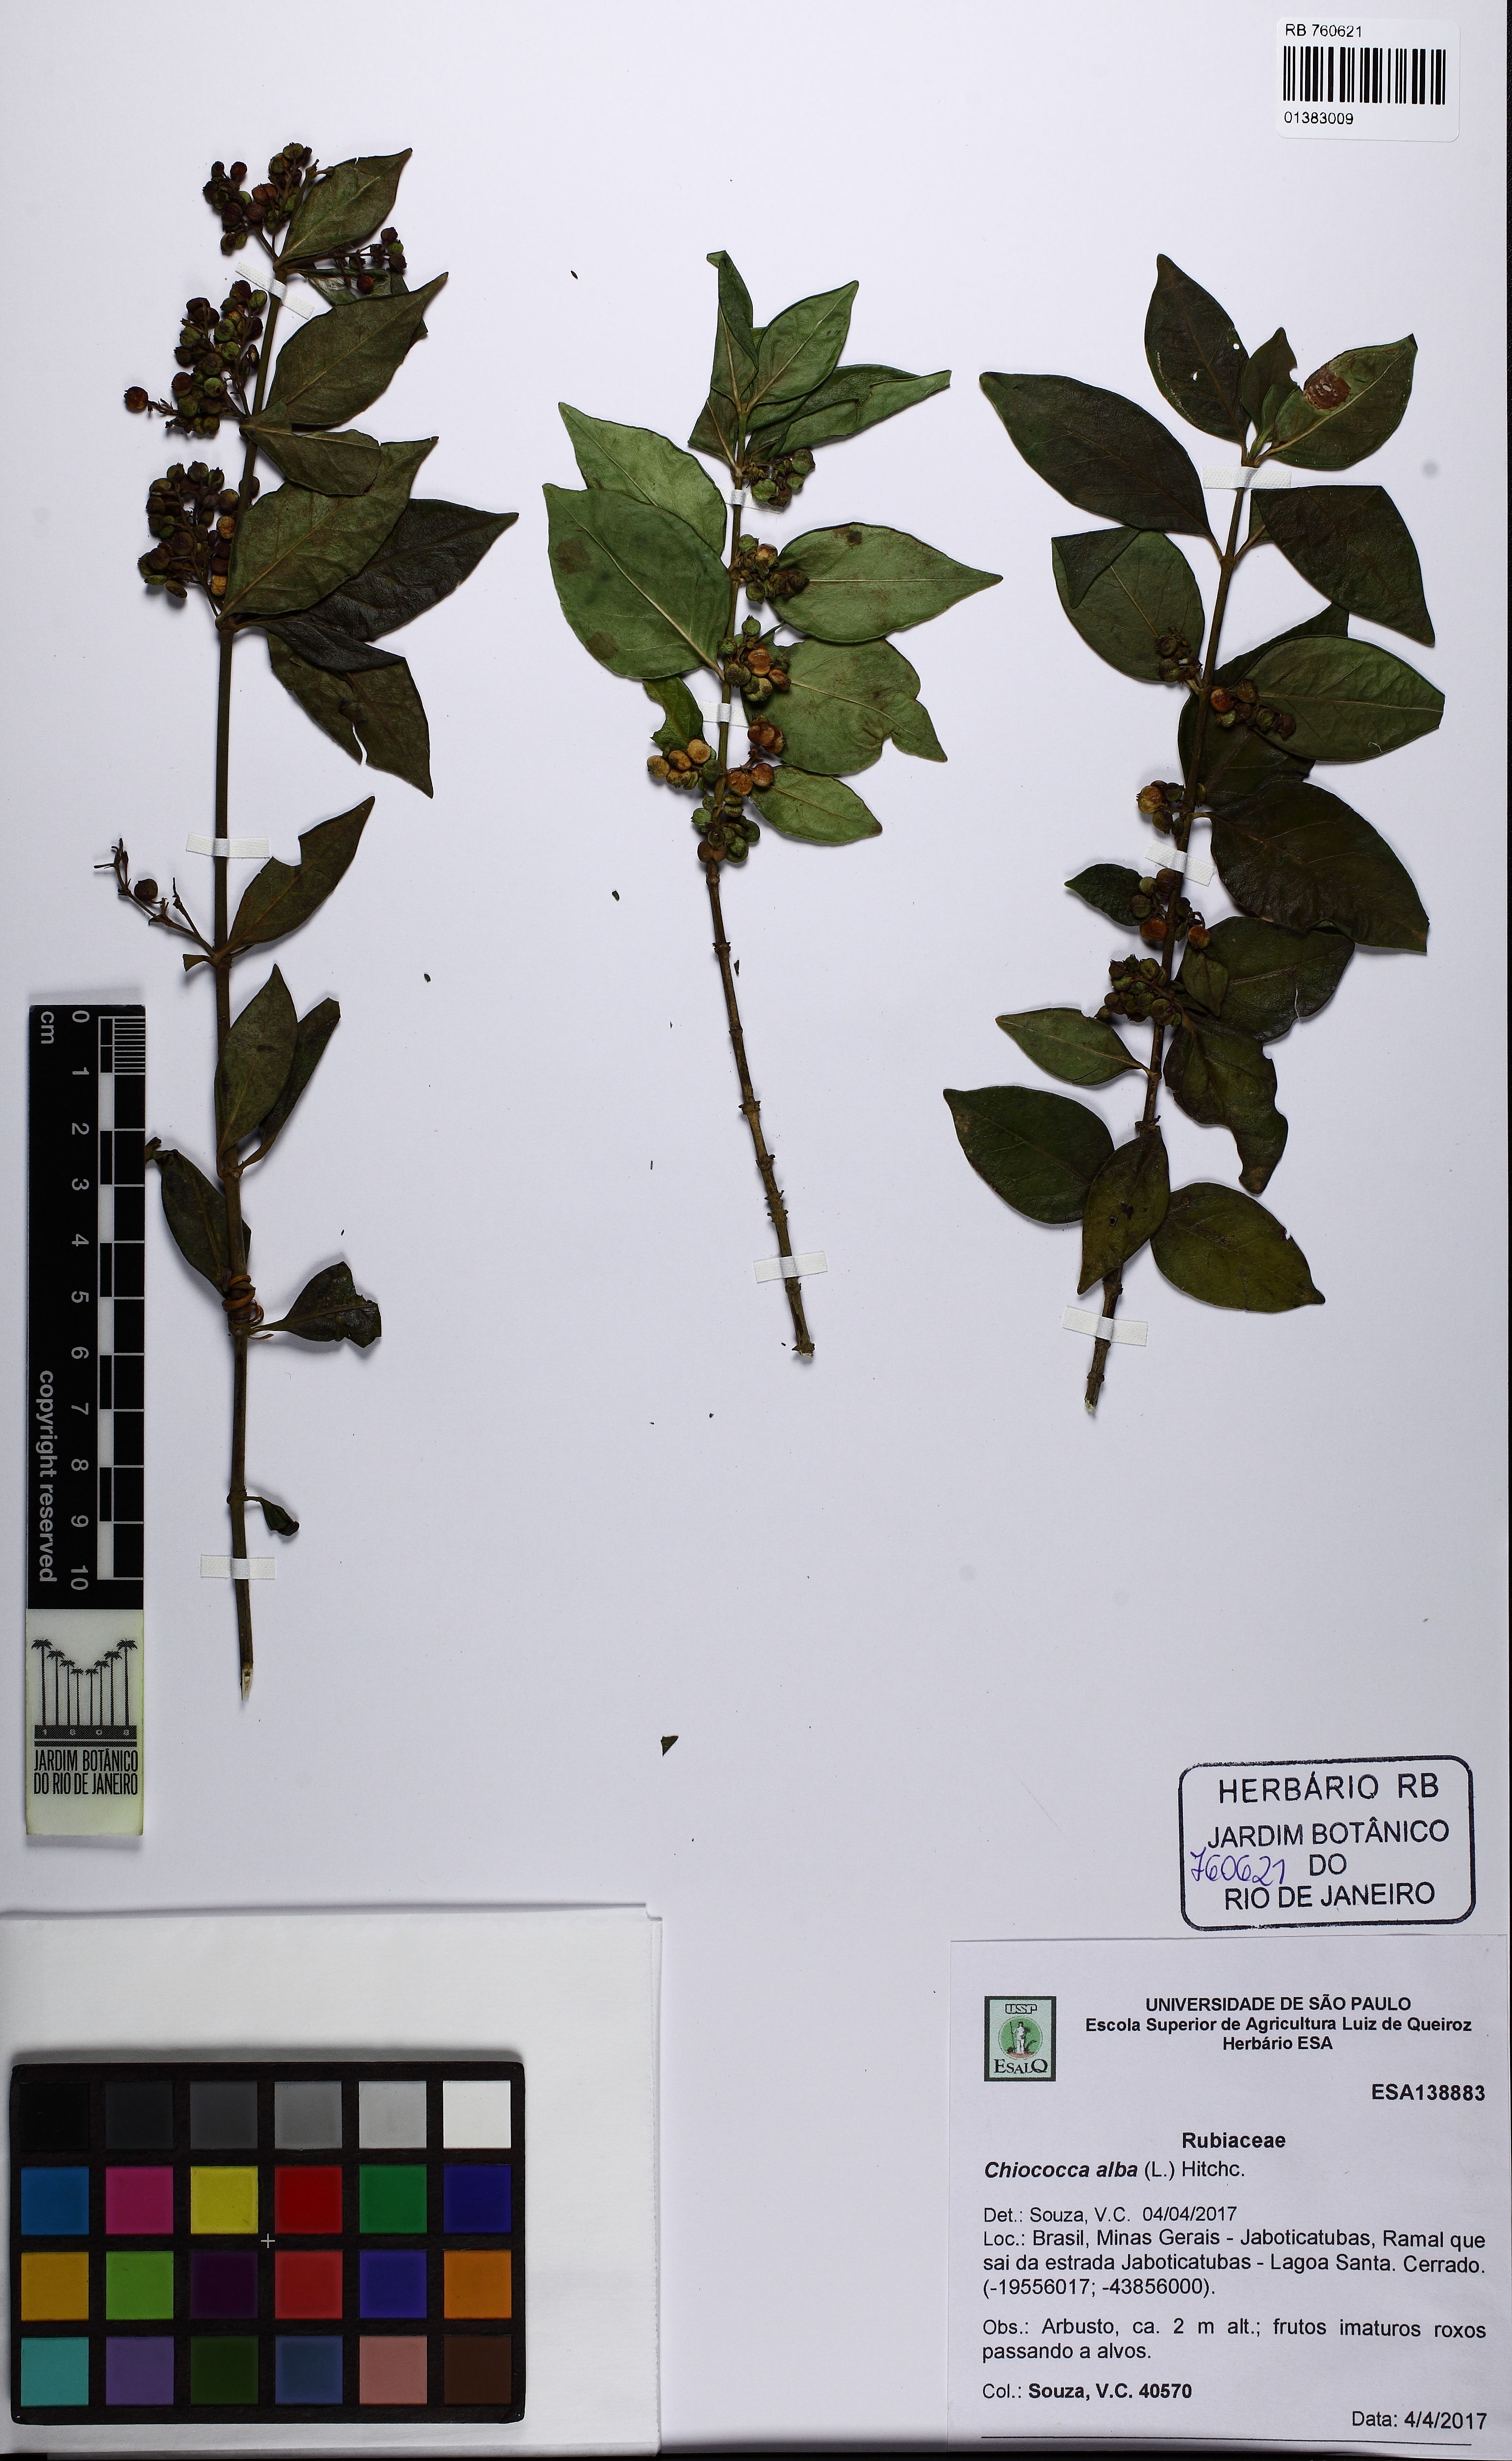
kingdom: Plantae
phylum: Tracheophyta
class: Magnoliopsida
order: Gentianales
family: Rubiaceae
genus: Chiococca
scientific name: Chiococca alba
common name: Snowberry
